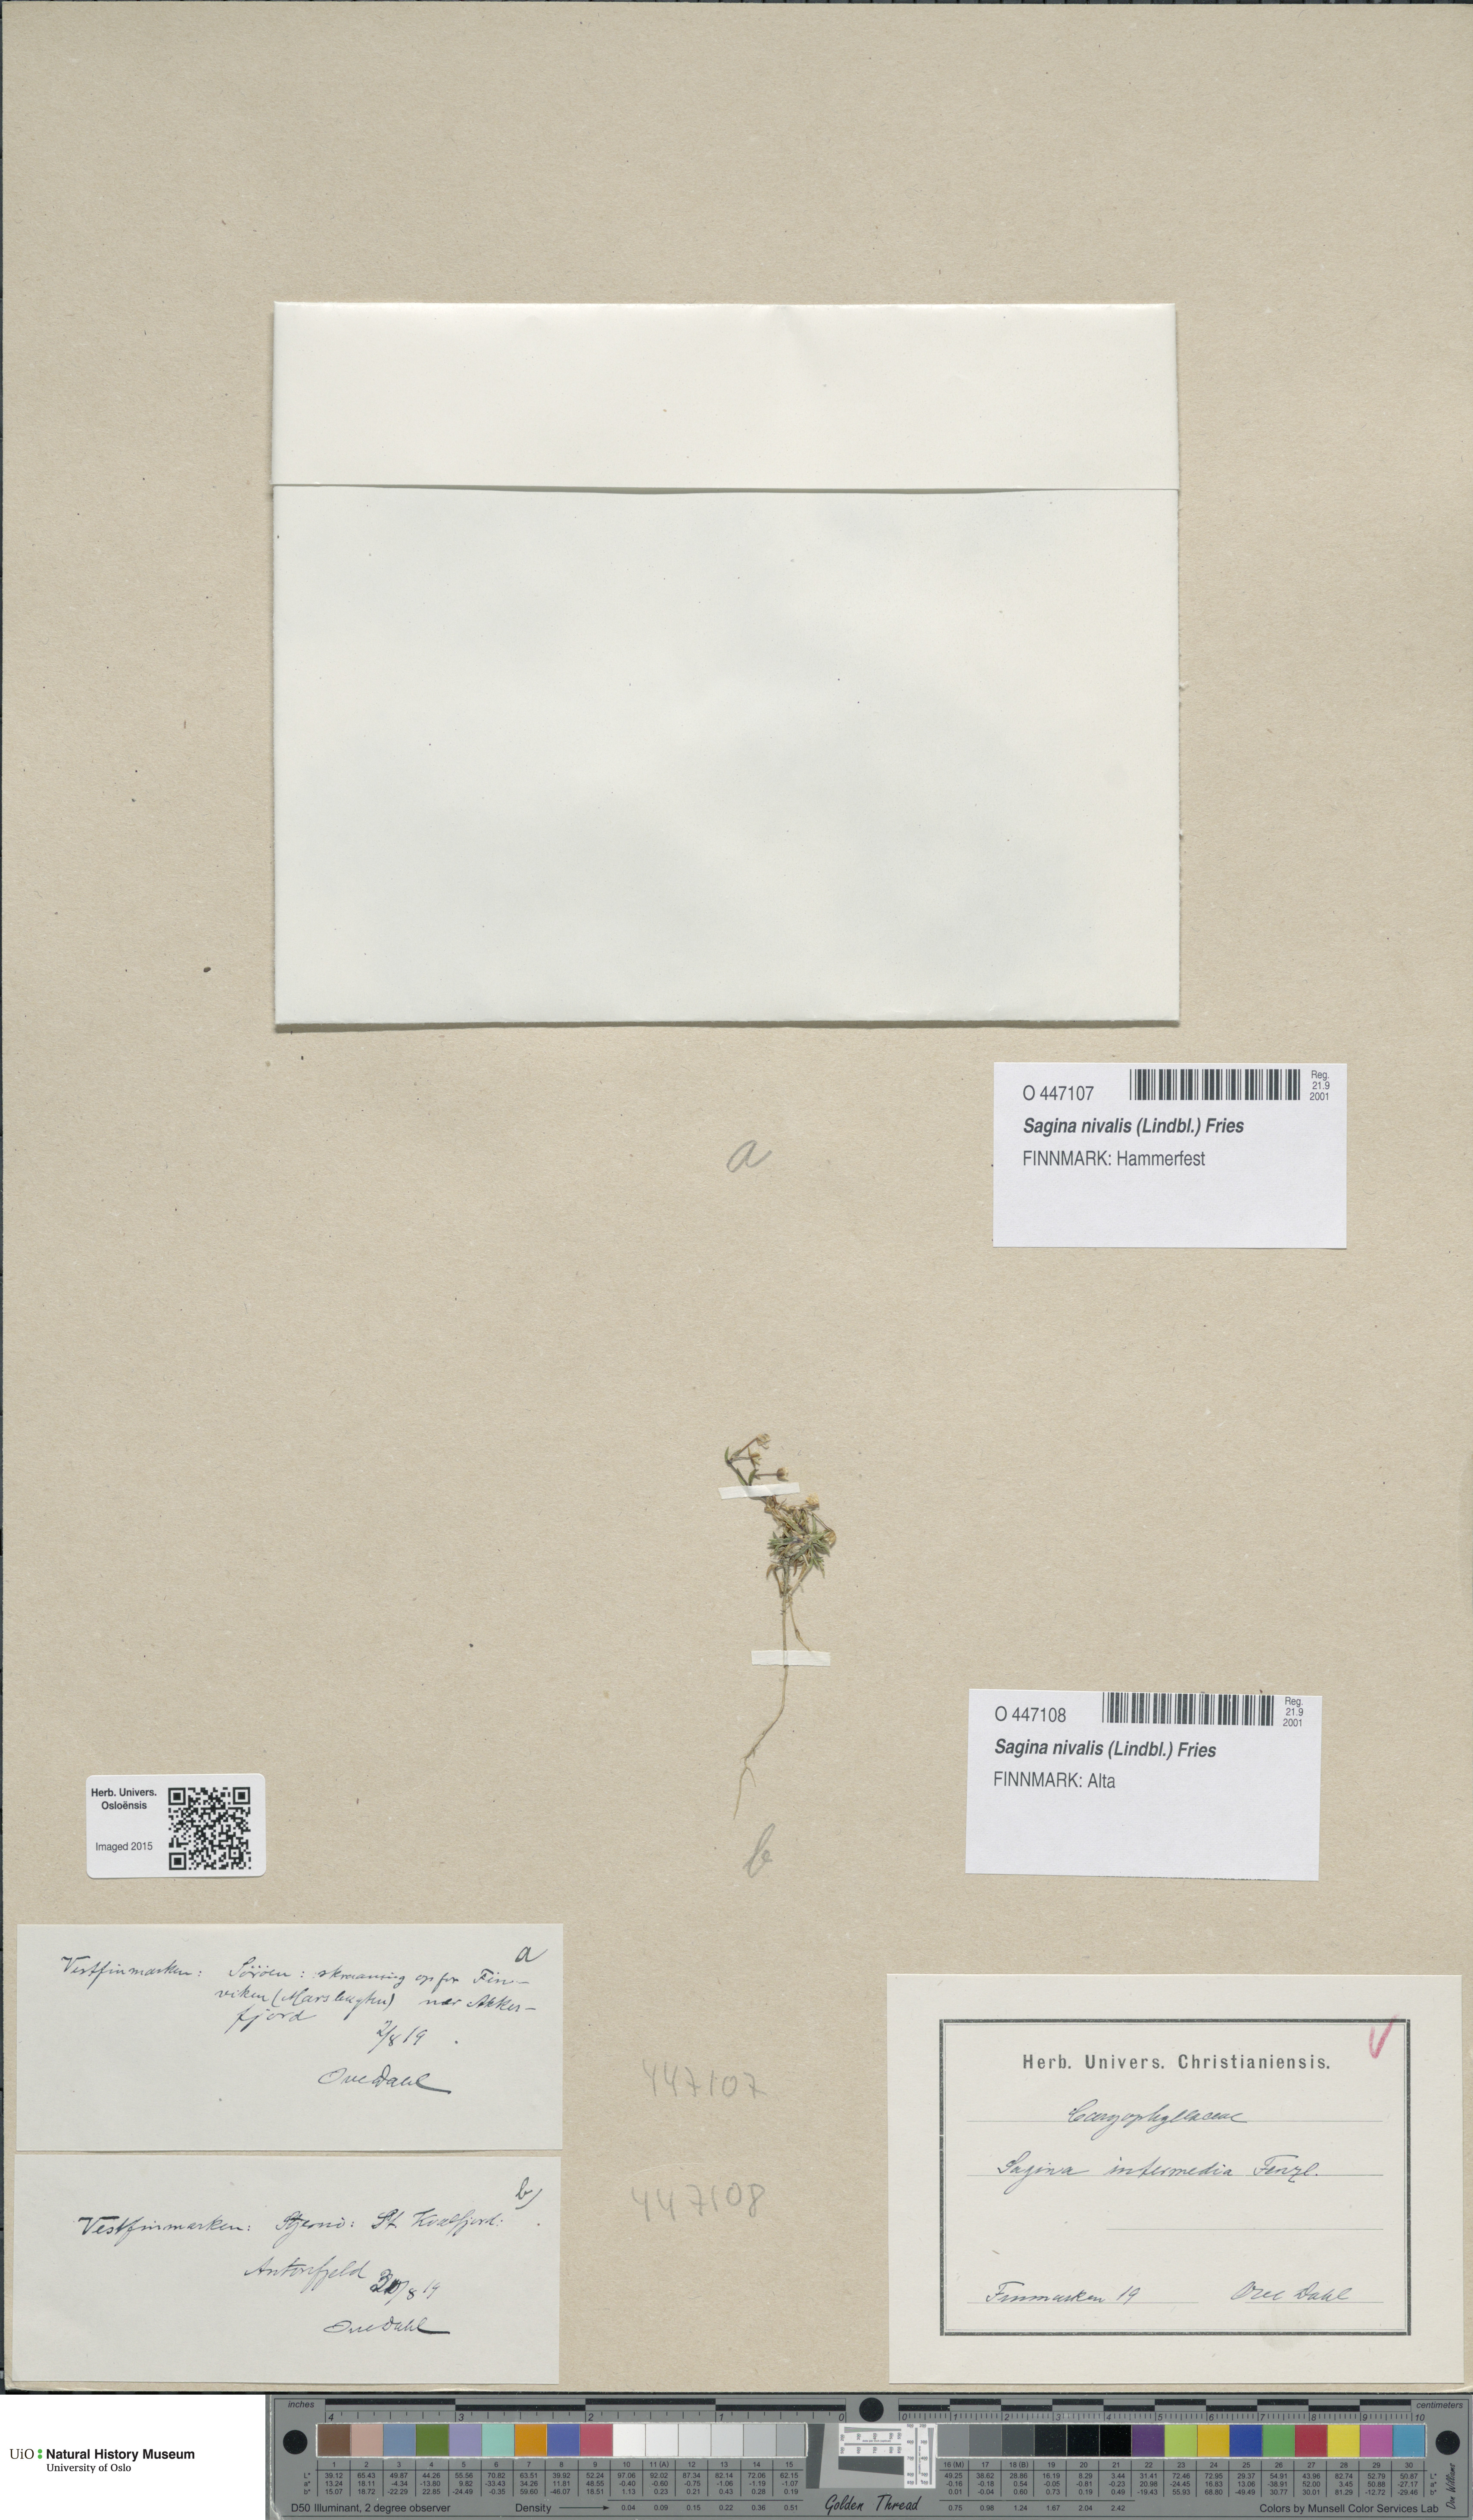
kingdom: Plantae
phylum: Tracheophyta
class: Magnoliopsida
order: Caryophyllales
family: Caryophyllaceae
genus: Sagina
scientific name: Sagina nivalis
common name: Snow pearlwort
